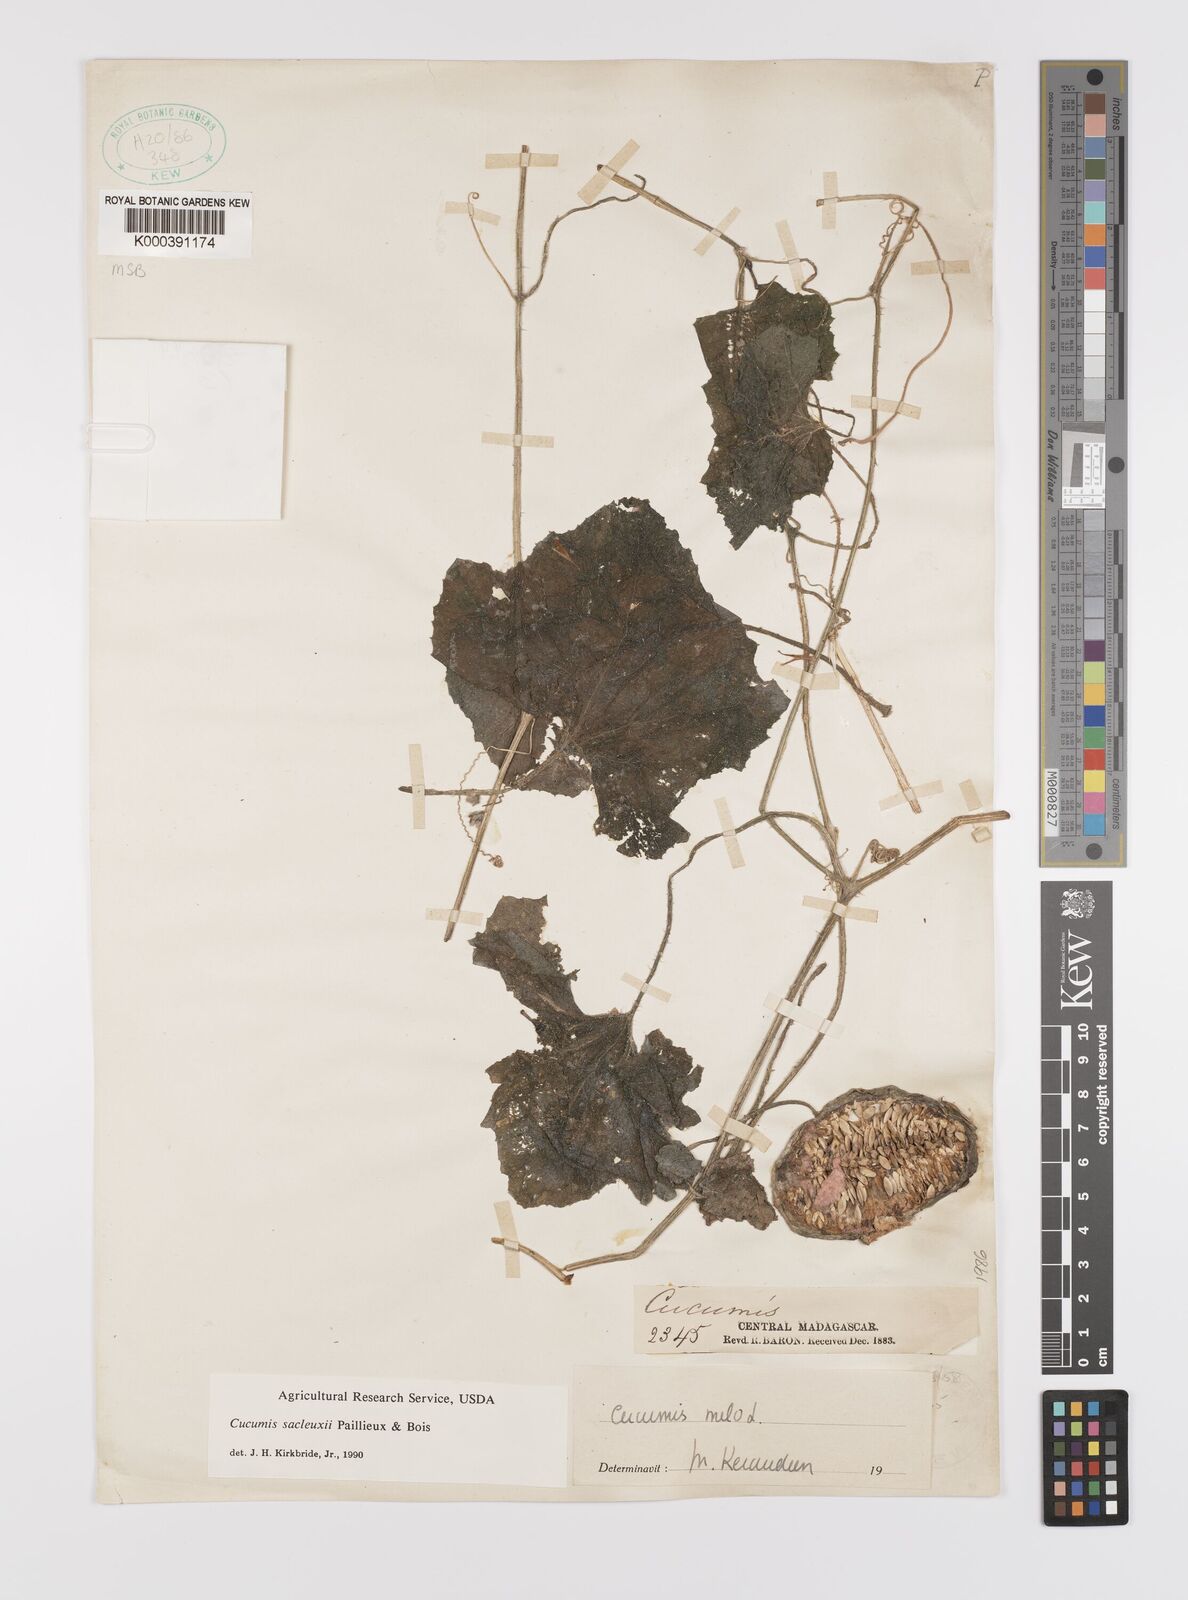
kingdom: Plantae
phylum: Tracheophyta
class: Magnoliopsida
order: Cucurbitales
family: Cucurbitaceae
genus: Cucumis
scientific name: Cucumis sacleuxii
